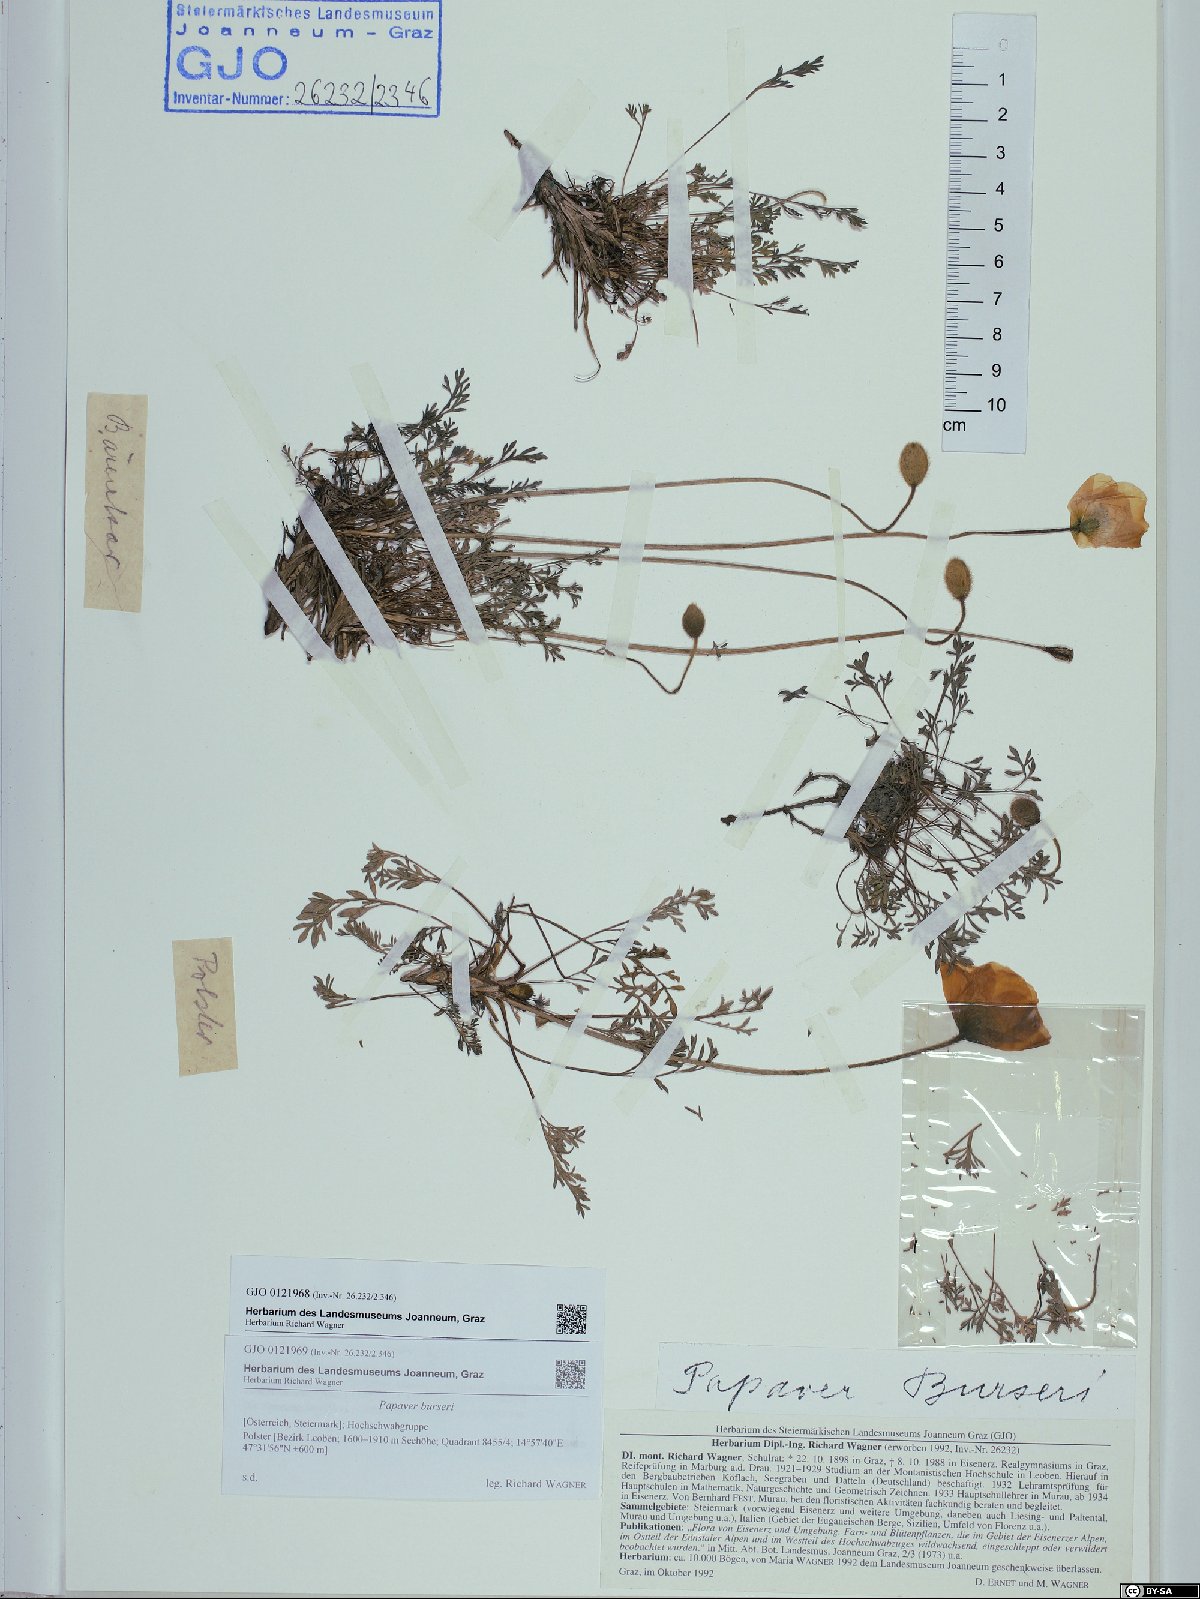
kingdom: Plantae
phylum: Tracheophyta
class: Magnoliopsida
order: Ranunculales
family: Papaveraceae
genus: Papaver
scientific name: Papaver alpinum
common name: Austrian poppy
